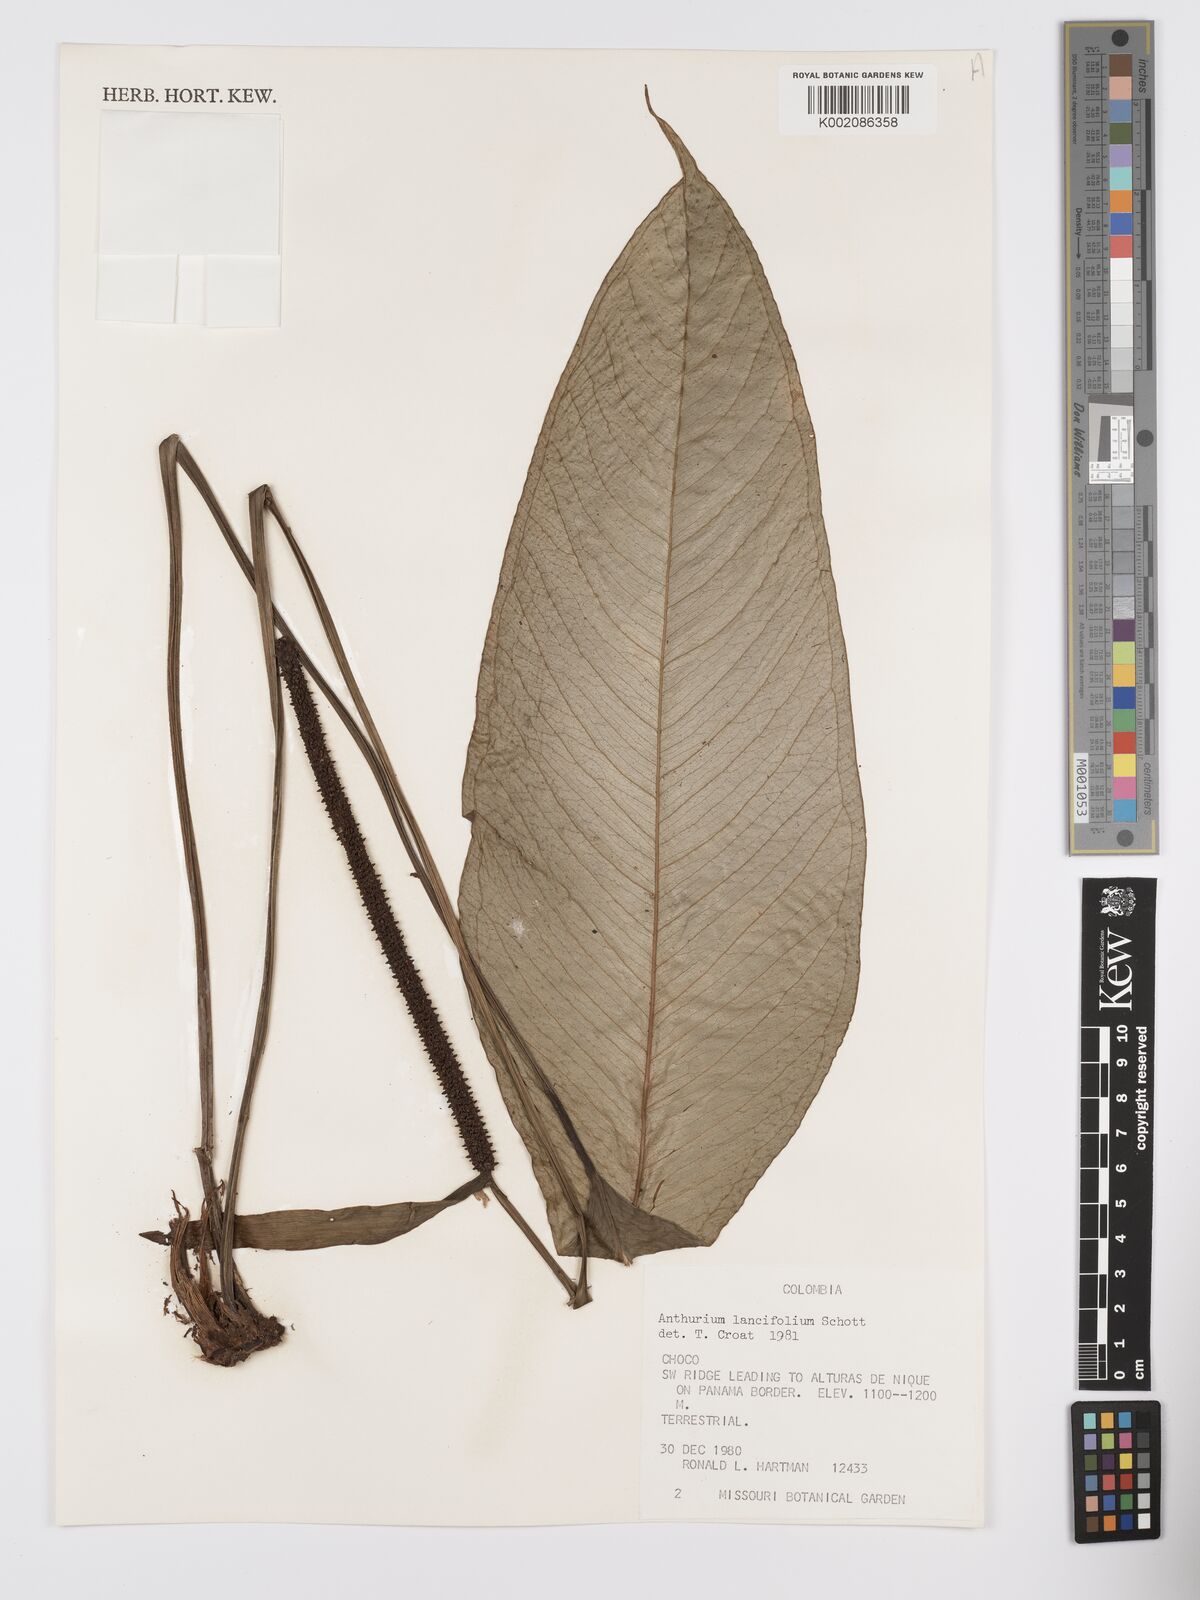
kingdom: Plantae
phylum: Tracheophyta
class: Liliopsida
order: Alismatales
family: Araceae
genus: Anthurium
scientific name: Anthurium lancifolium
